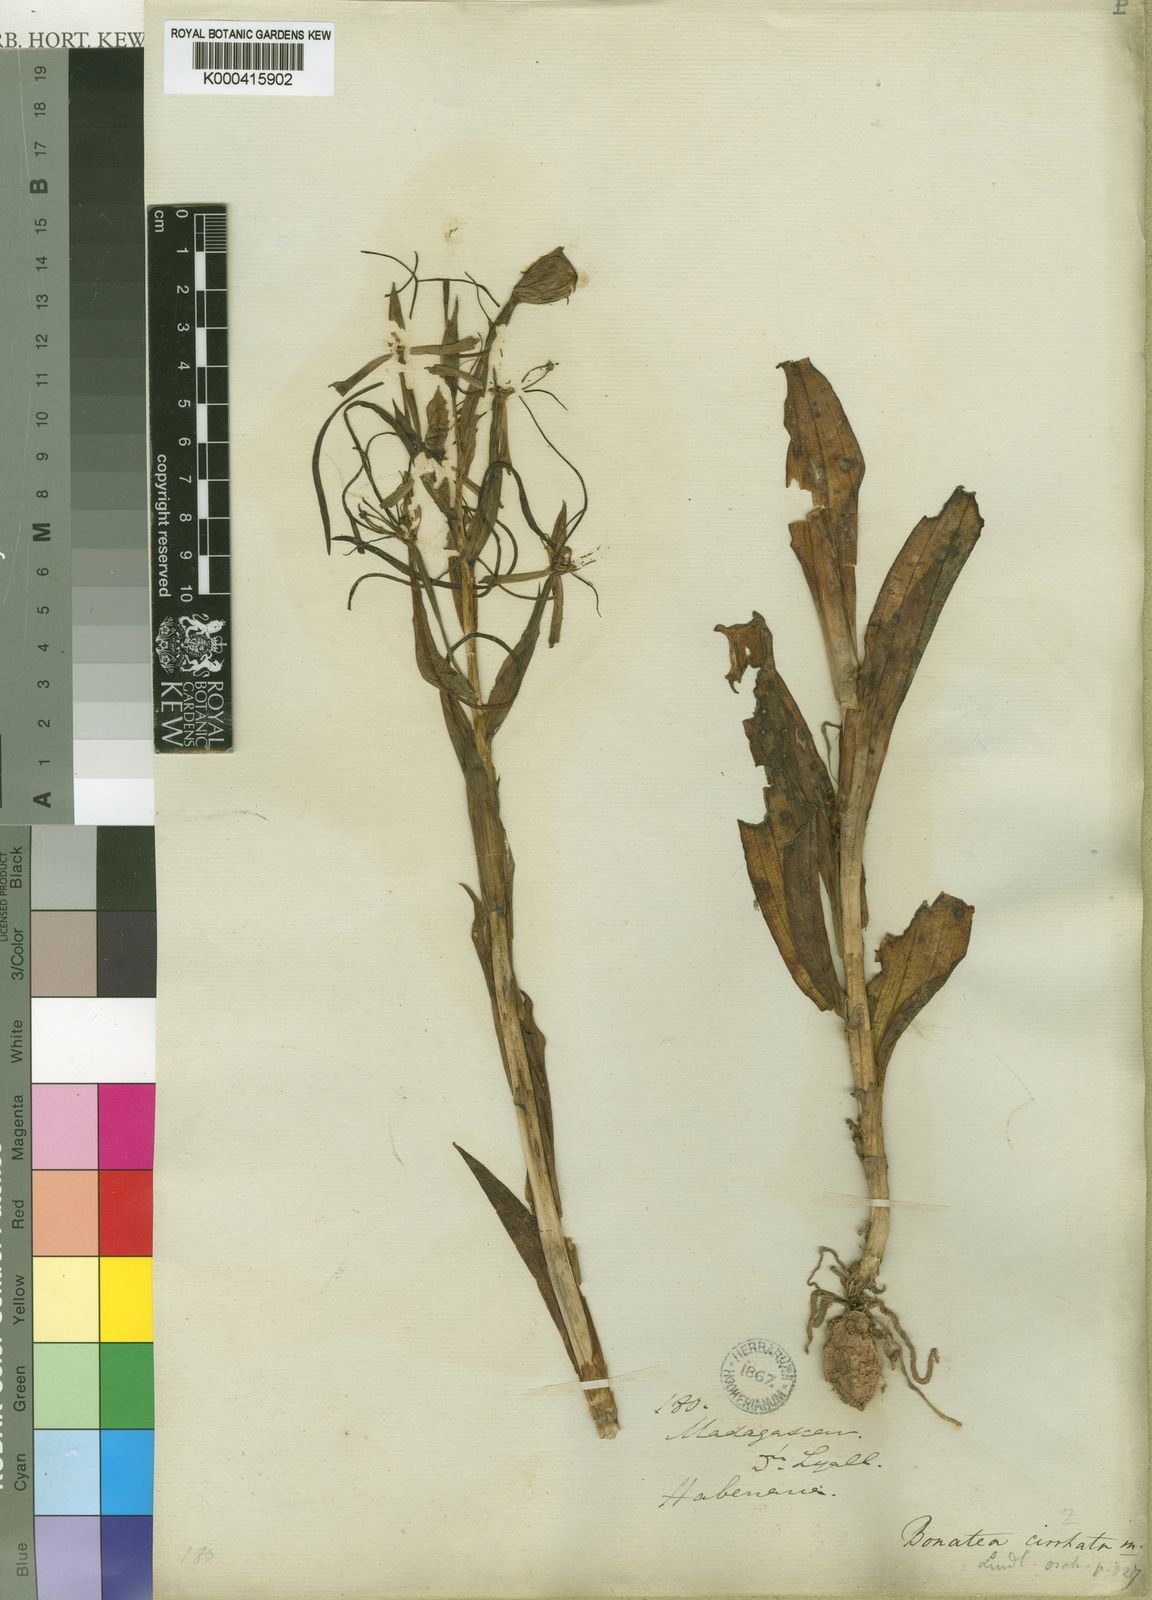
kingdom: Plantae
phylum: Tracheophyta
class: Liliopsida
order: Asparagales
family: Orchidaceae
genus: Habenaria
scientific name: Habenaria cirrhata
